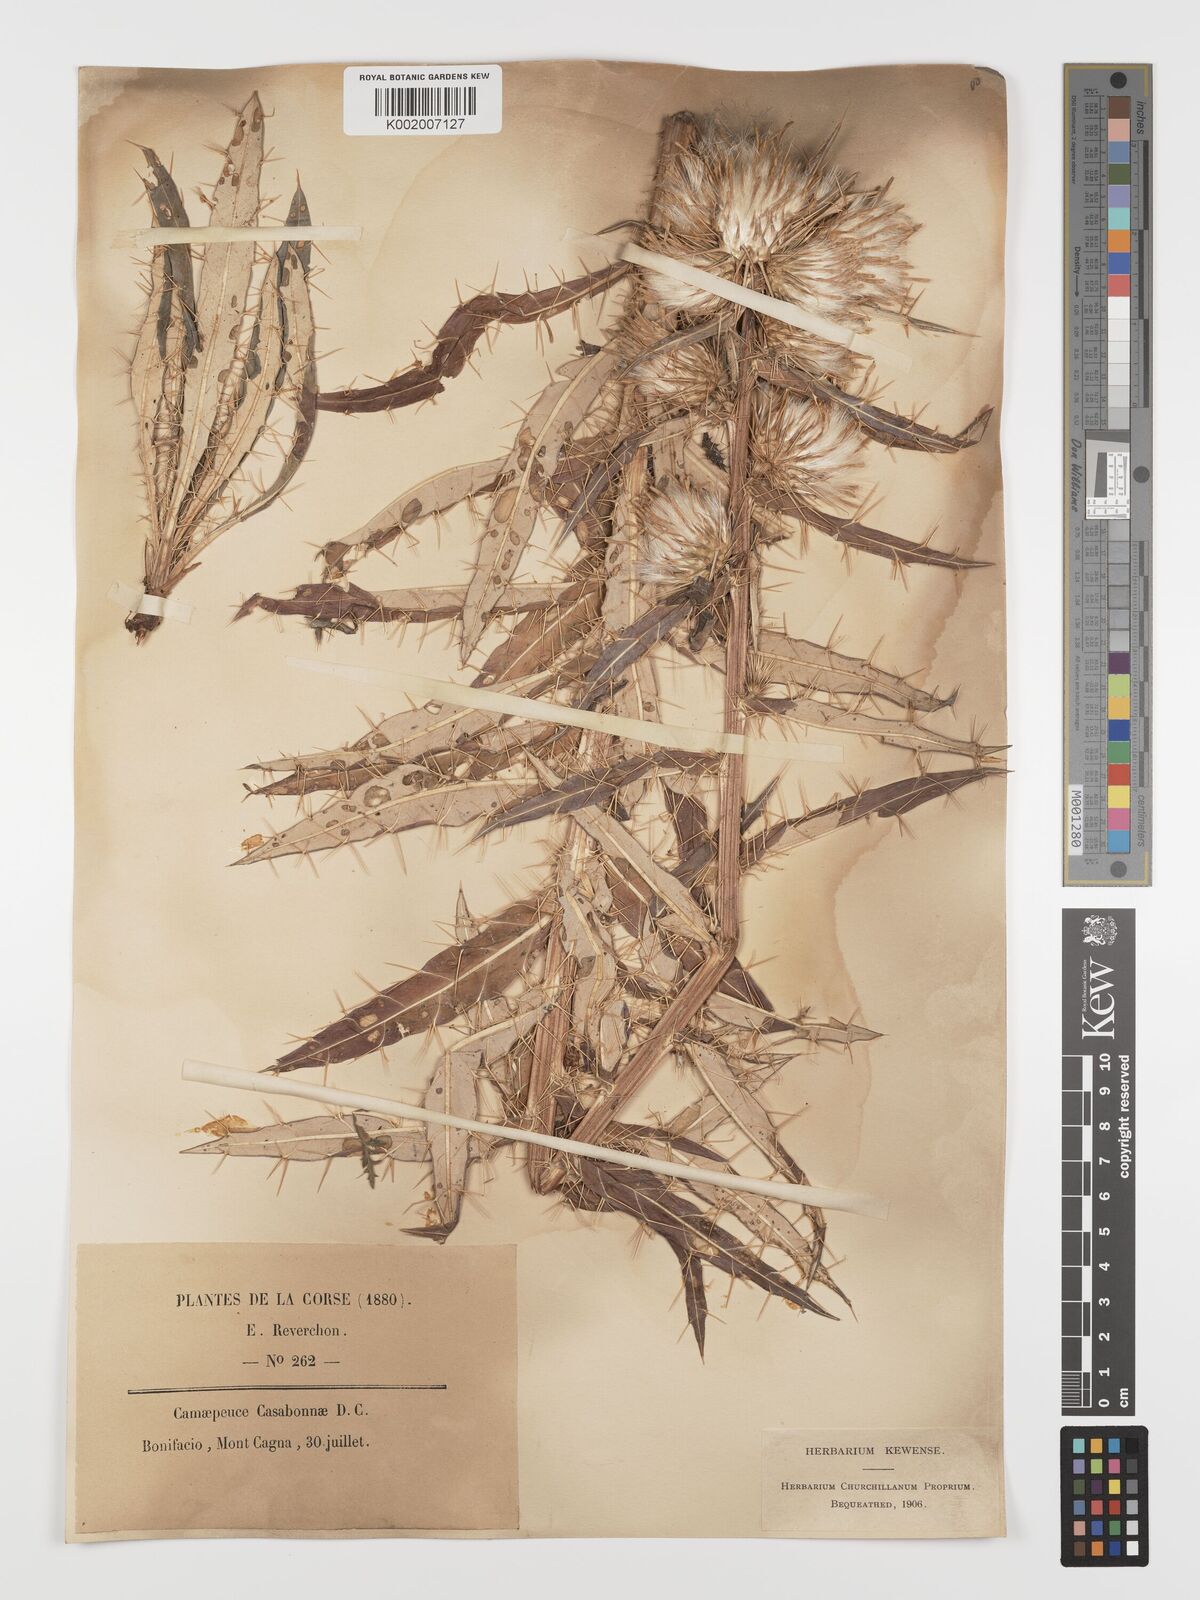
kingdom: Plantae
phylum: Tracheophyta
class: Magnoliopsida
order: Asterales
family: Asteraceae
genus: Ptilostemon
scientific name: Ptilostemon casabonae
